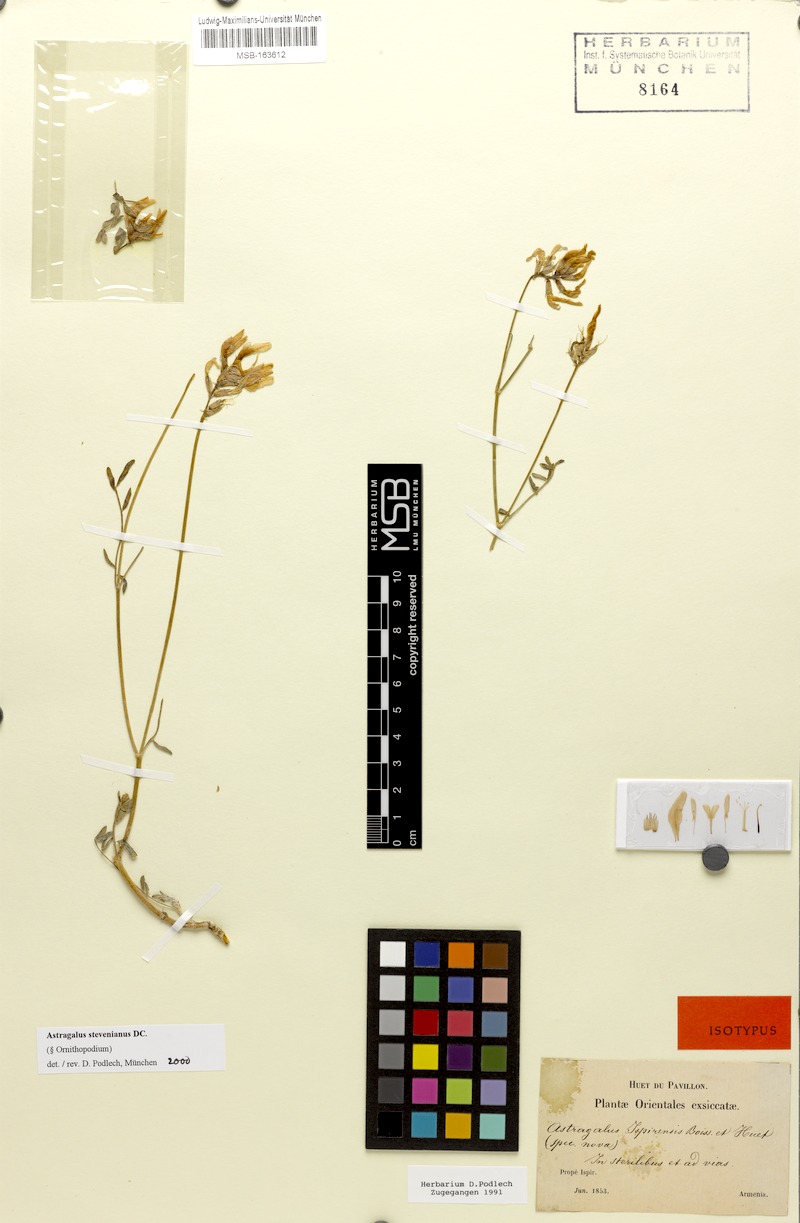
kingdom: Plantae
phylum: Tracheophyta
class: Magnoliopsida
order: Fabales
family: Fabaceae
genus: Astragalus
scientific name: Astragalus stevenianus
